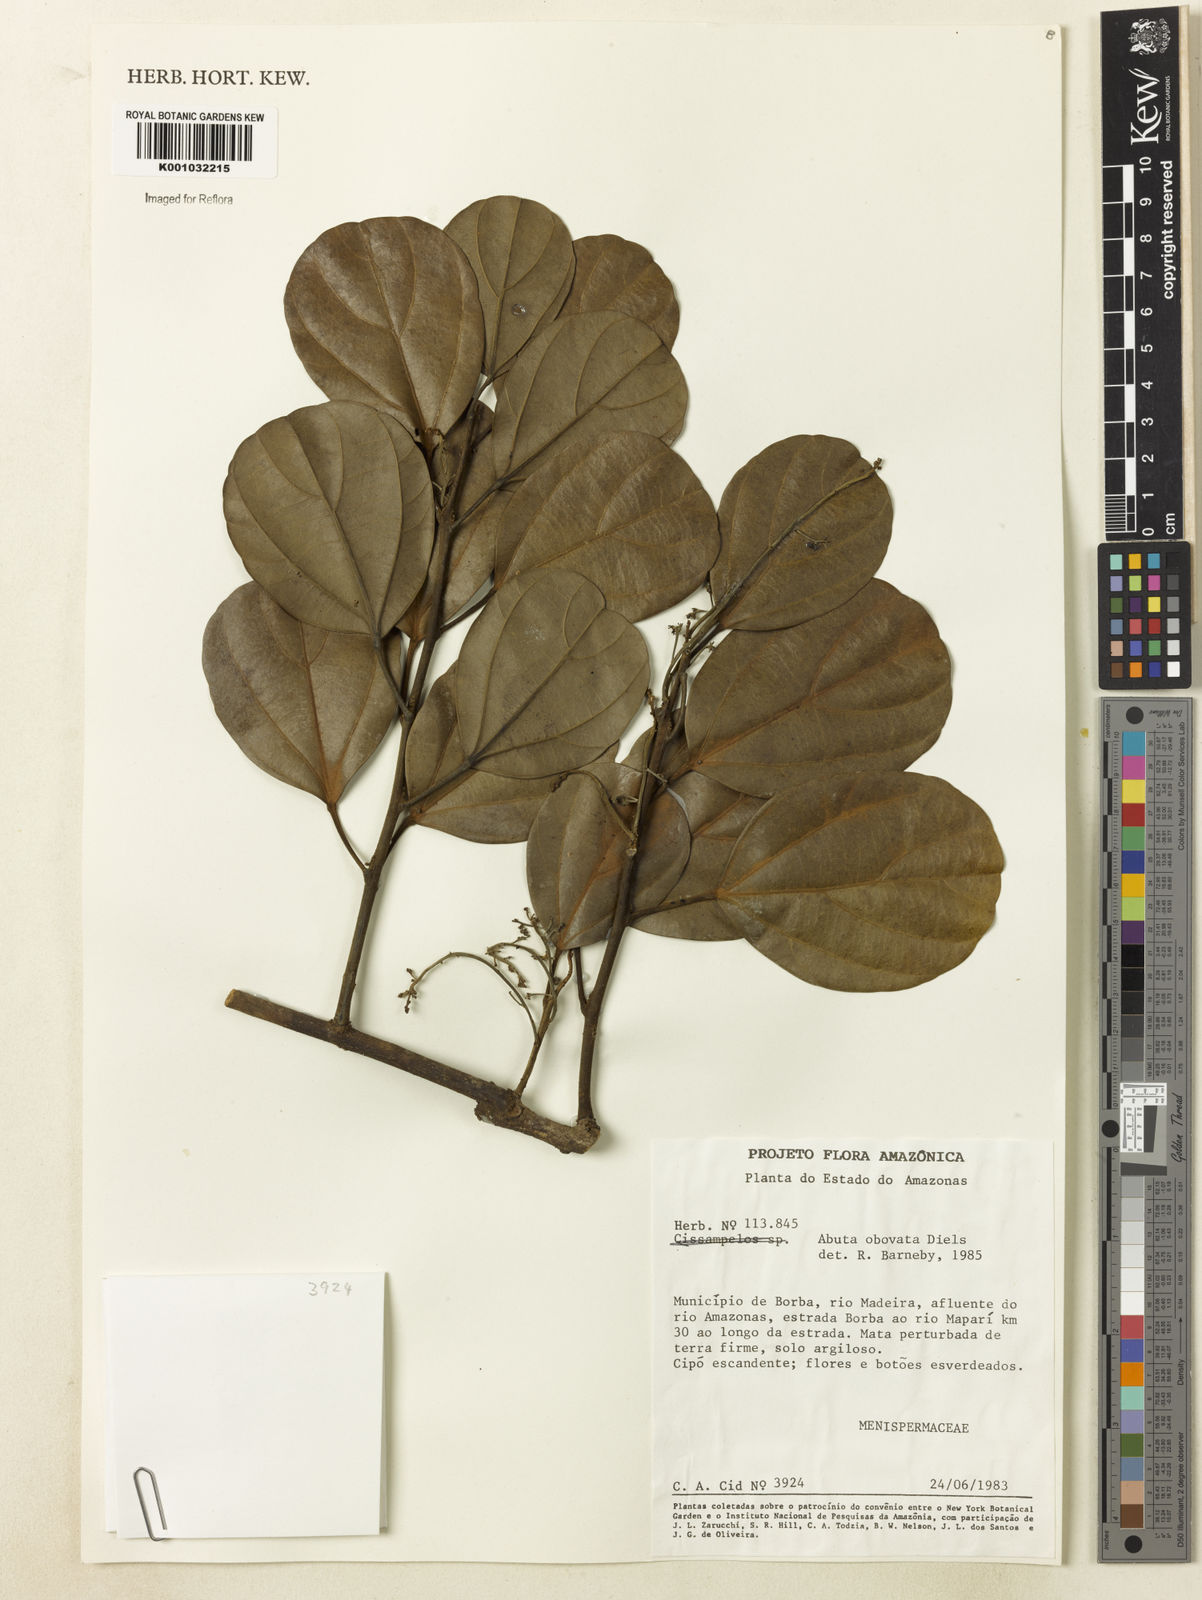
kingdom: Plantae
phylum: Tracheophyta
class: Magnoliopsida
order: Ranunculales
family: Menispermaceae
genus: Abuta
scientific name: Abuta obovata
